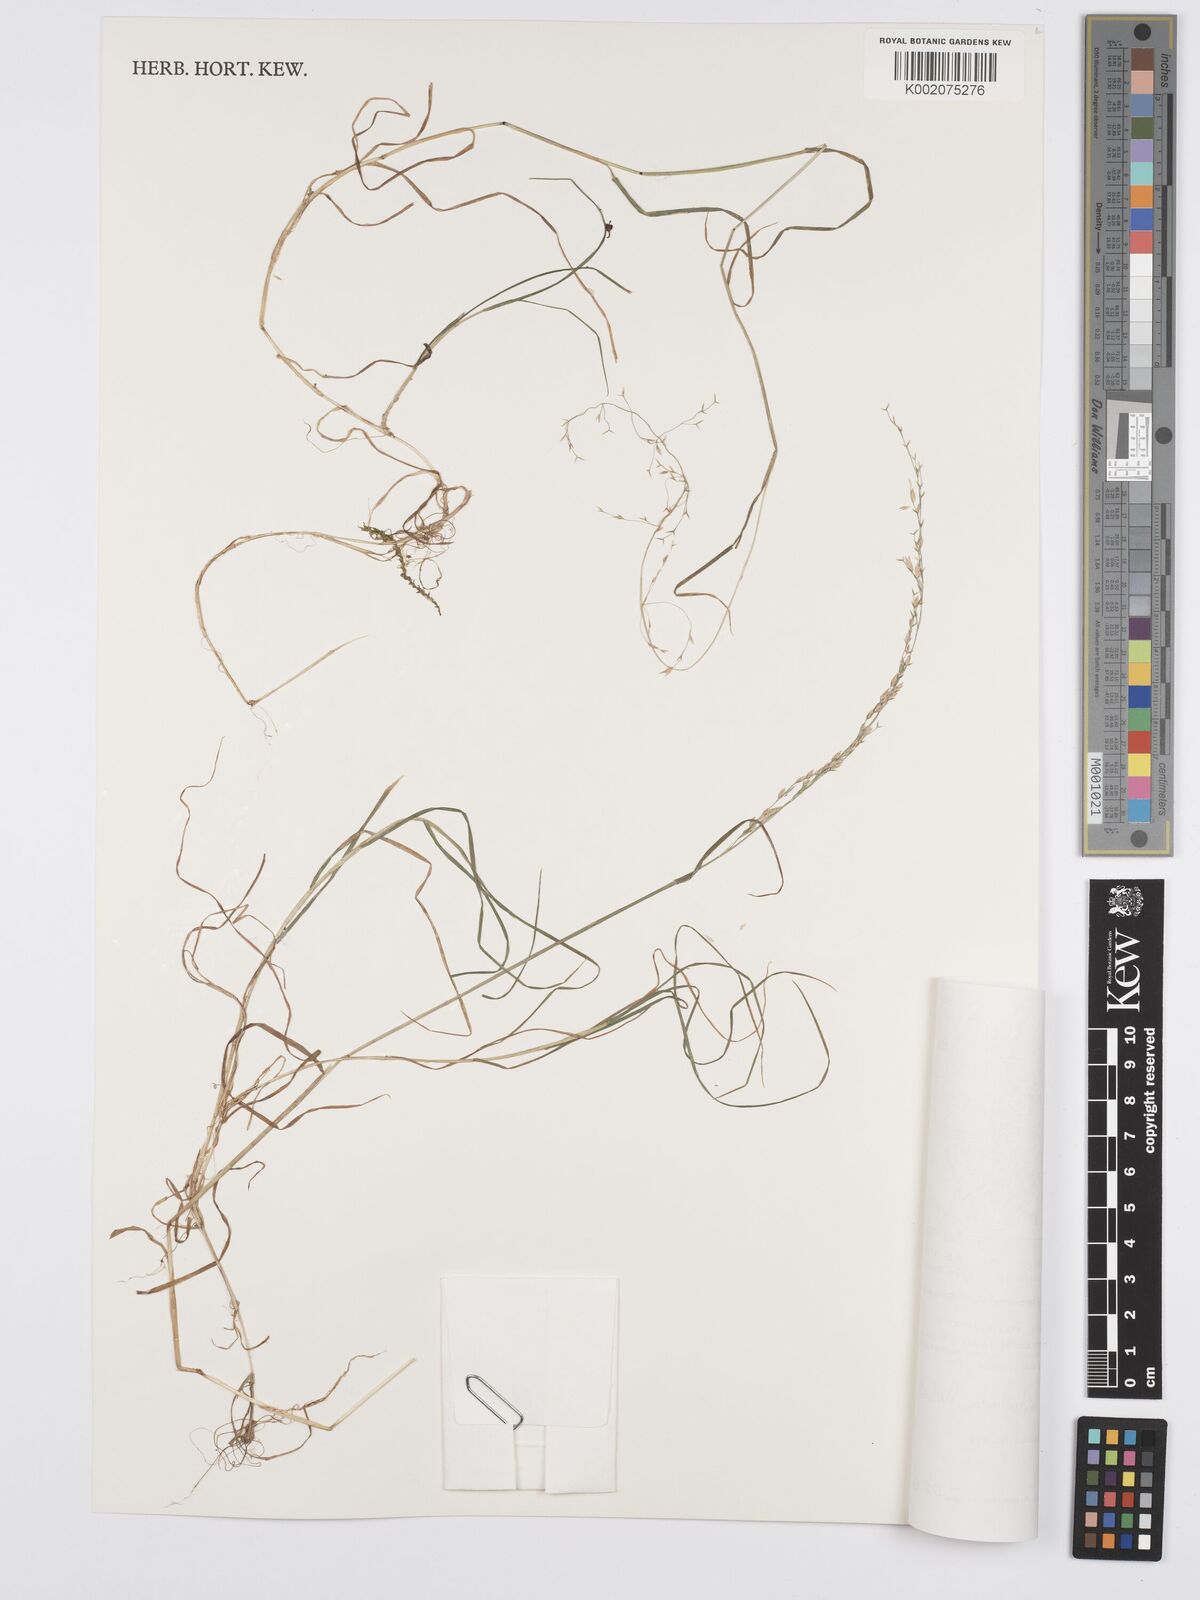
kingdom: Plantae
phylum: Tracheophyta
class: Liliopsida
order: Poales
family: Poaceae
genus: Poa
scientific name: Poa leptoclada
